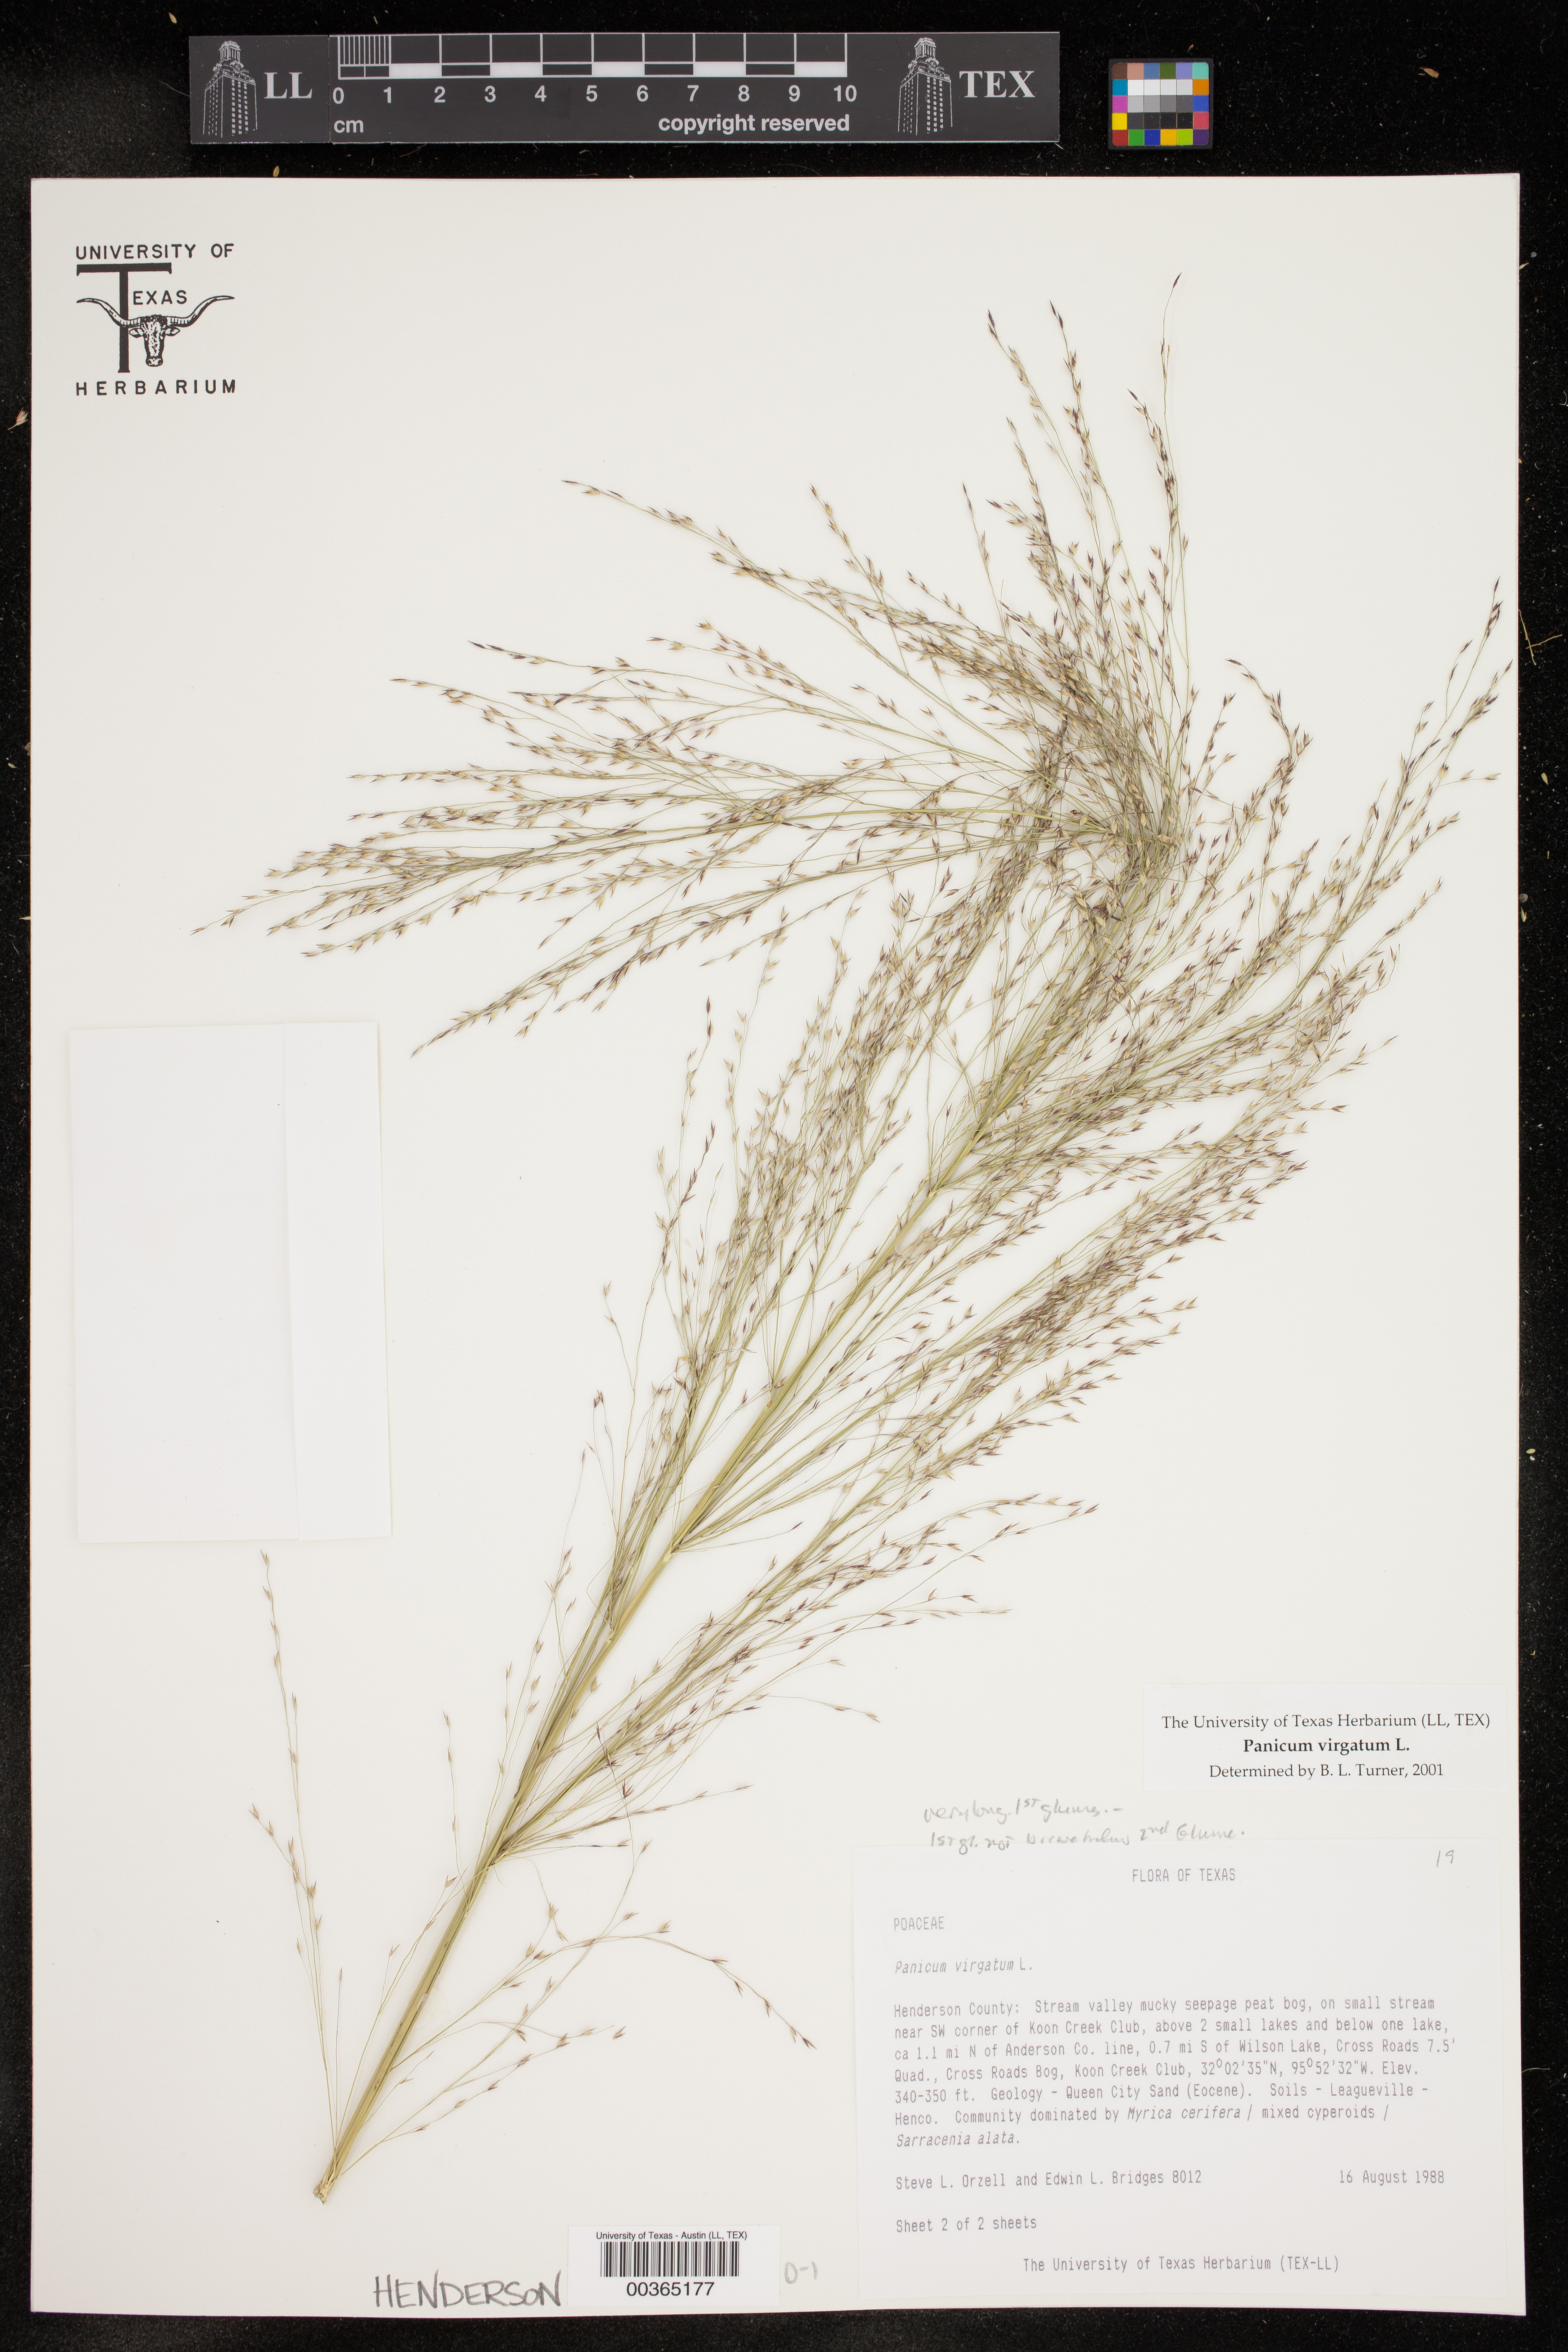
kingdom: Plantae
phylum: Tracheophyta
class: Liliopsida
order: Poales
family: Poaceae
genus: Panicum
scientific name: Panicum virgatum
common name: Switchgrass
